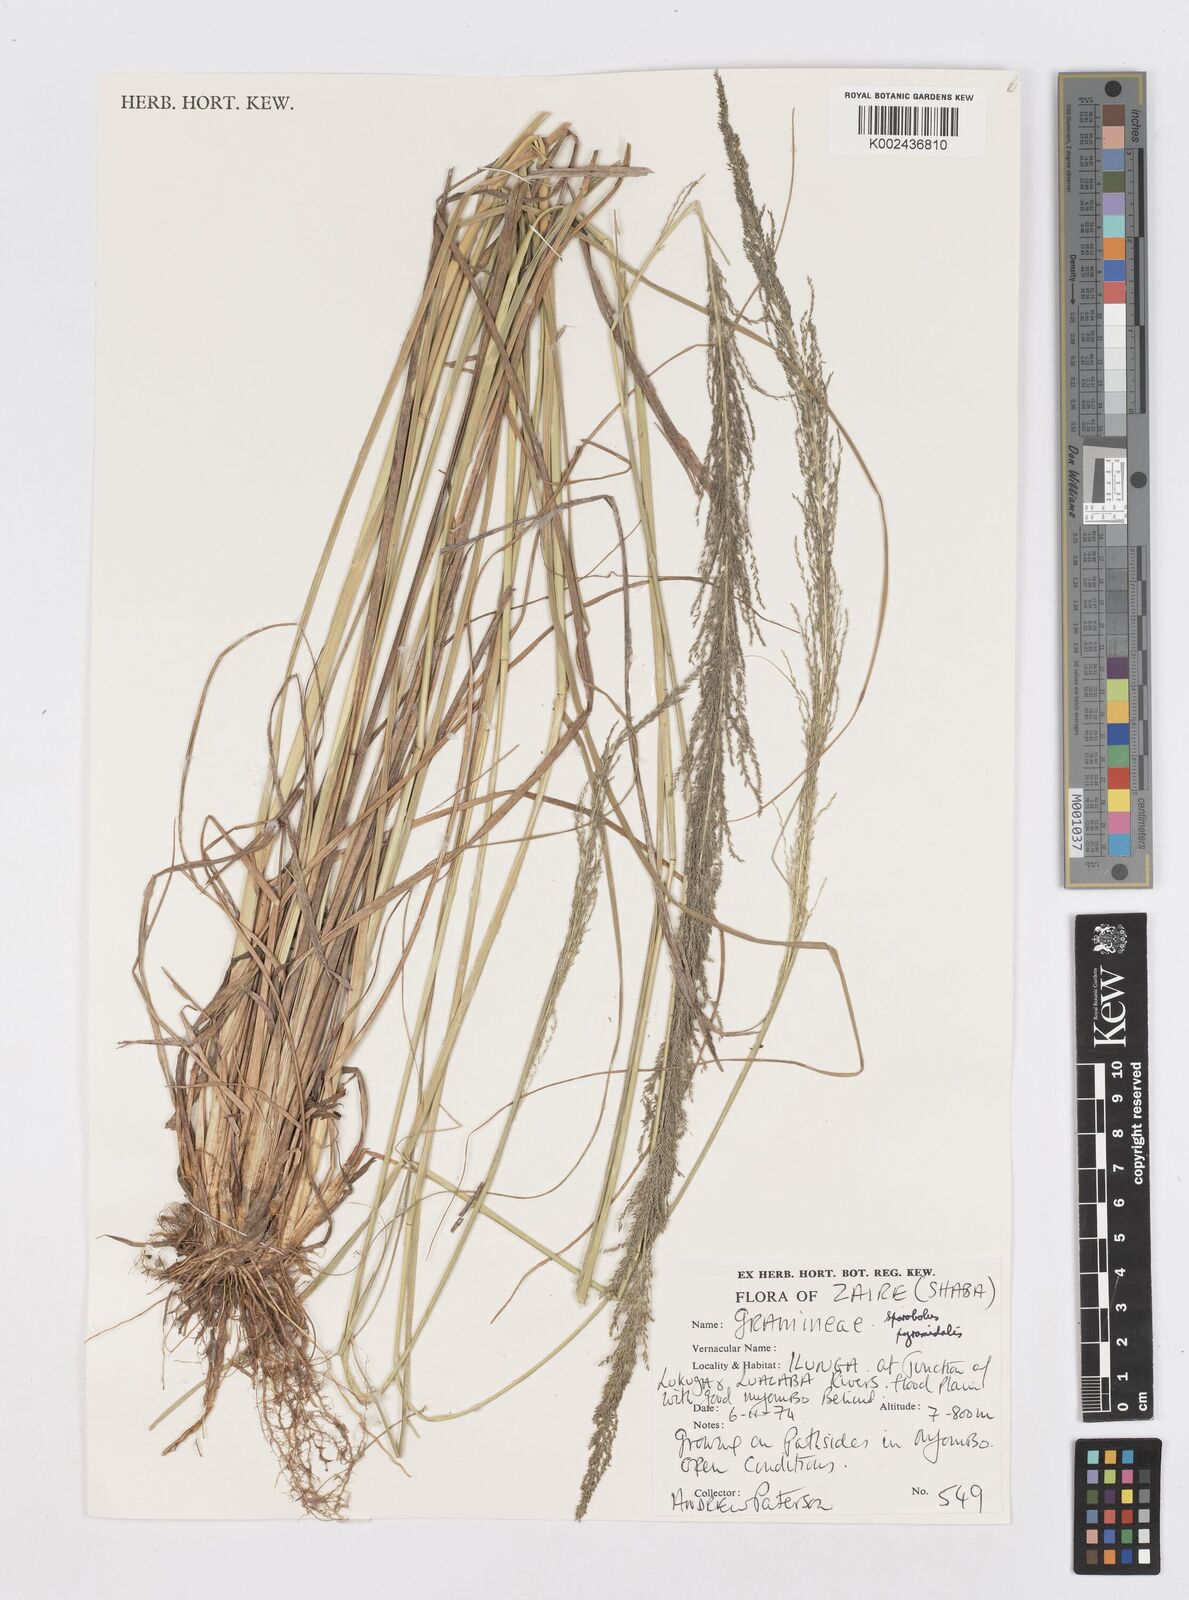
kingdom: Plantae
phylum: Tracheophyta
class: Liliopsida
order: Poales
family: Poaceae
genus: Sporobolus
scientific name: Sporobolus pyramidalis
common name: West indian dropseed
